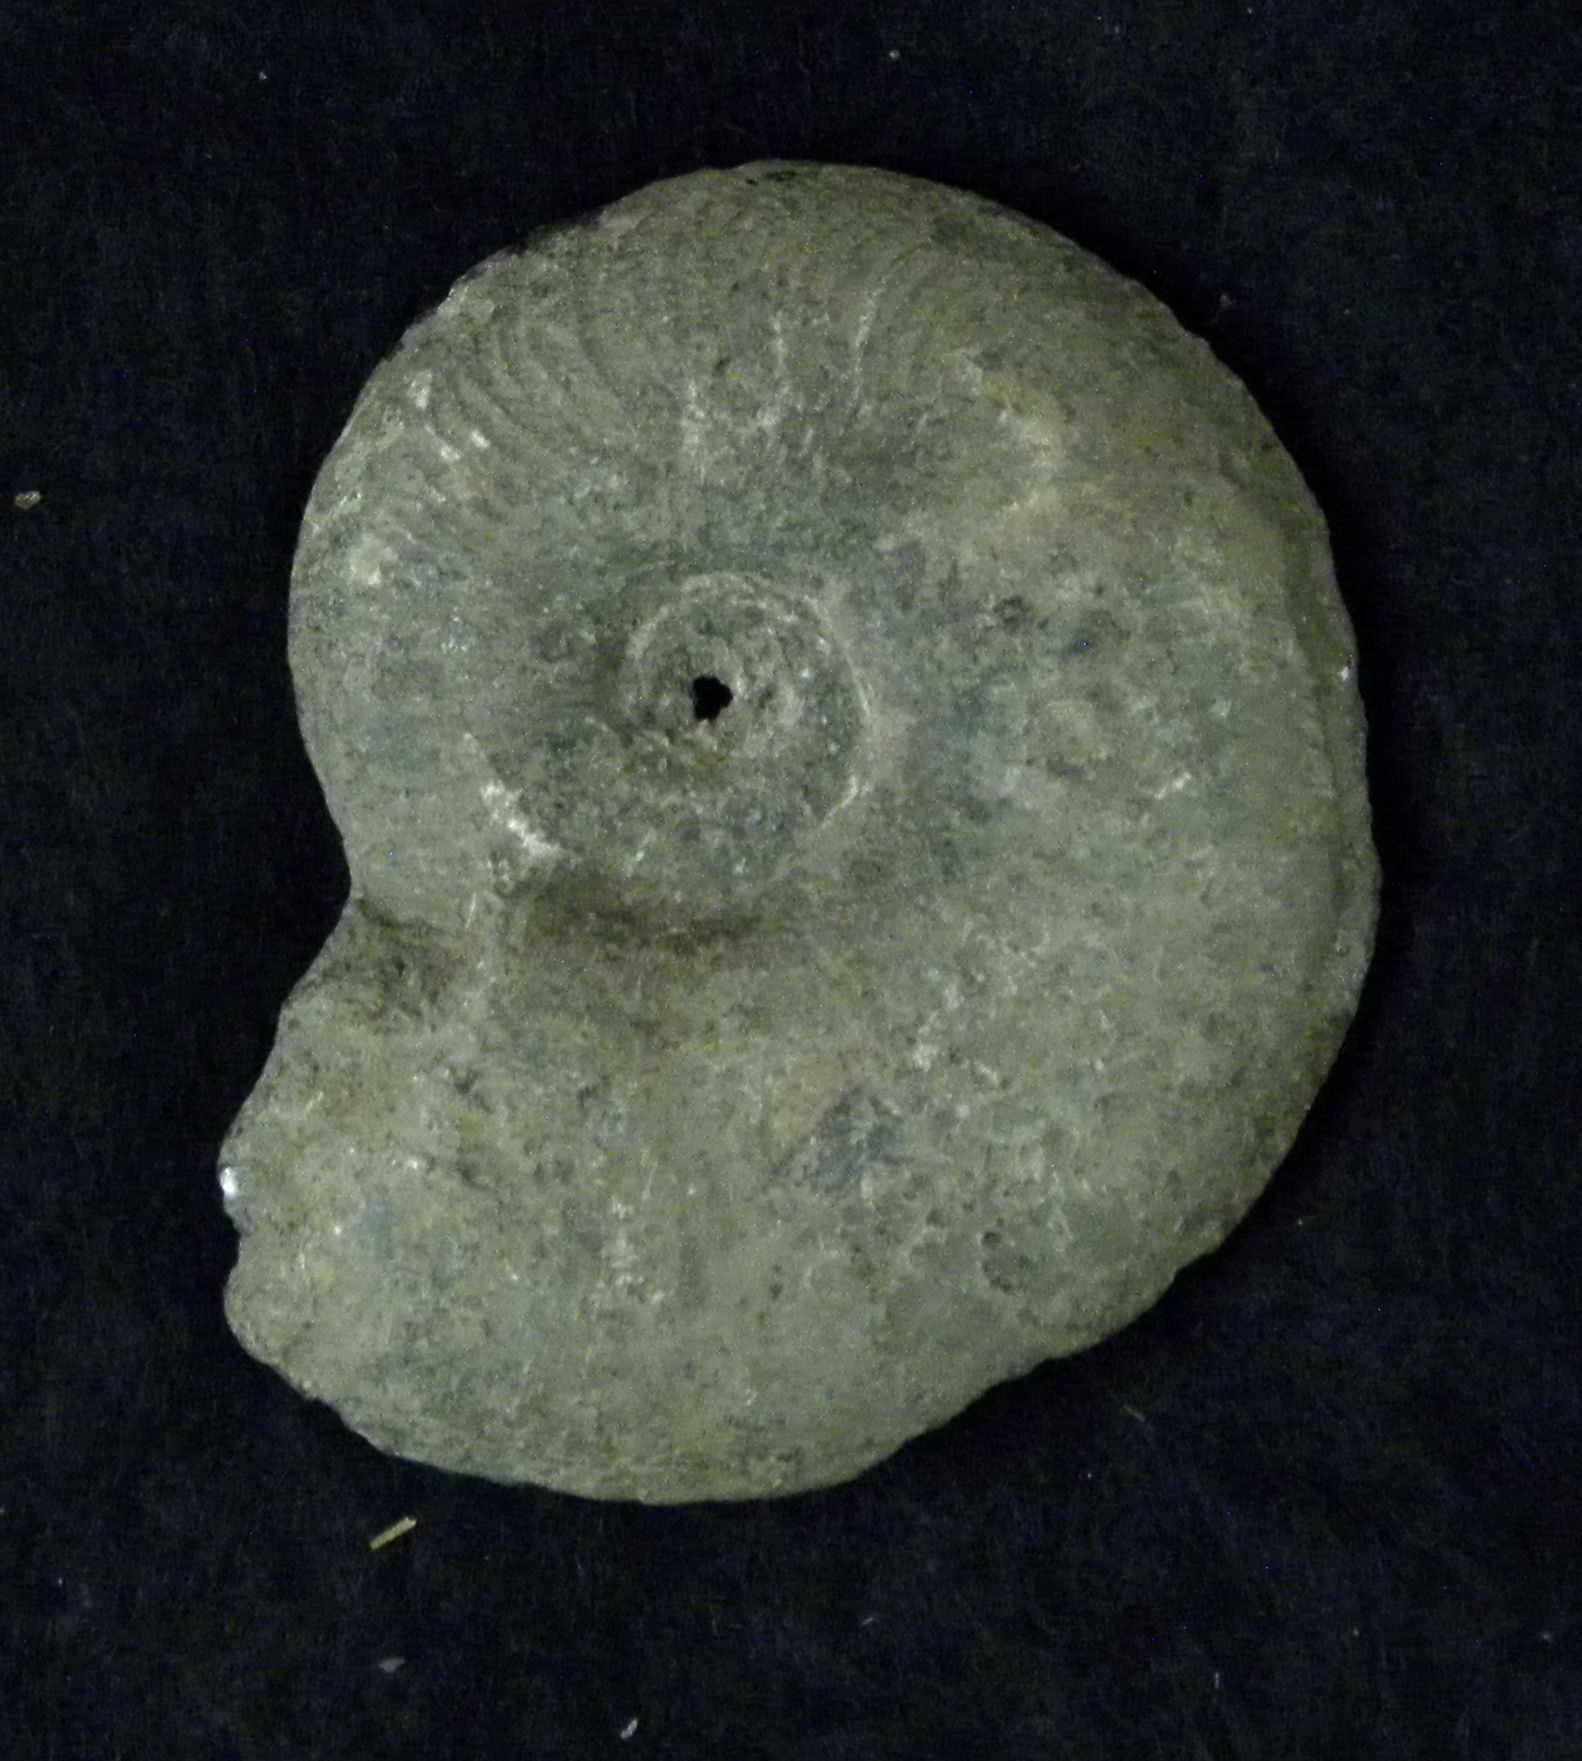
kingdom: Animalia
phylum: Mollusca
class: Cephalopoda
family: Hildoceratidae
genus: Pleydellia
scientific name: Pleydellia Cotteswoldia subcompta
